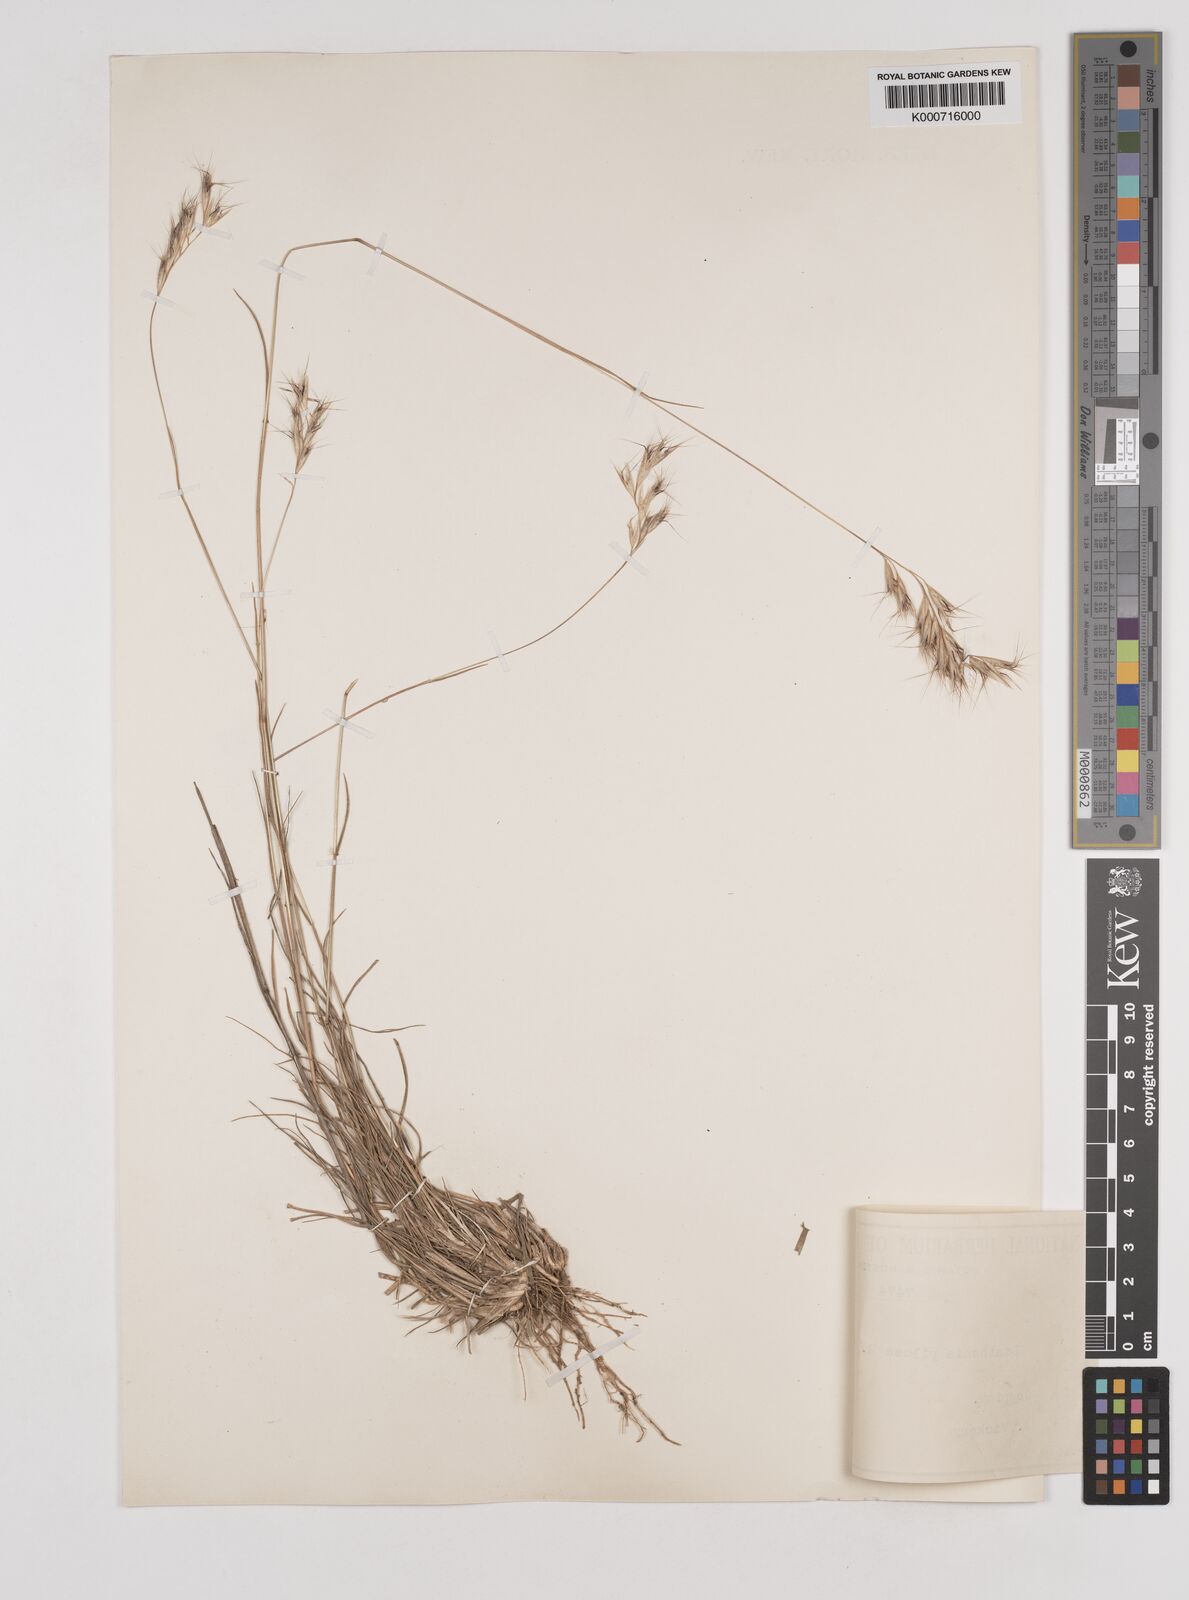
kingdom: Plantae
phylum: Tracheophyta
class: Liliopsida
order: Poales
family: Poaceae
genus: Rytidosperma
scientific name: Rytidosperma pilosum
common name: Hairy wallaby grass
